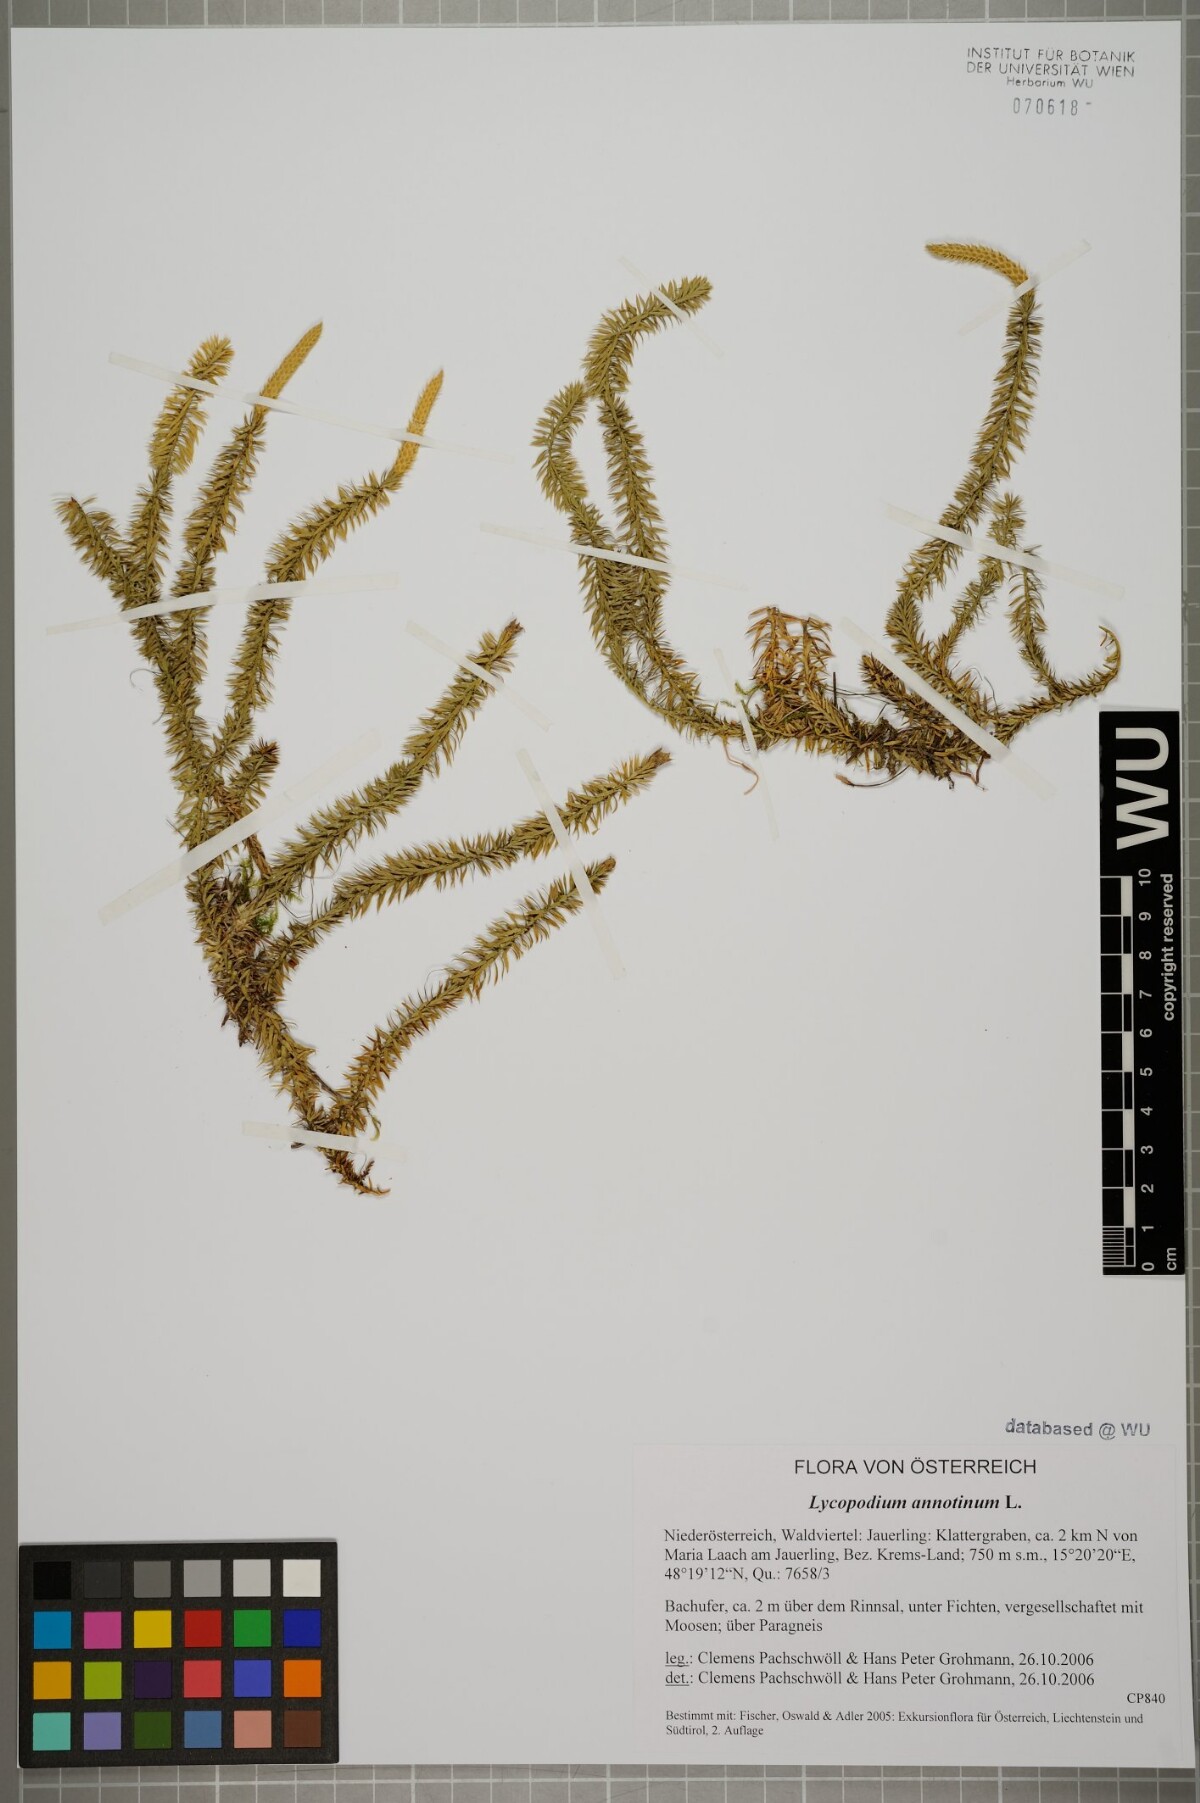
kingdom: Plantae
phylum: Tracheophyta
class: Lycopodiopsida
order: Lycopodiales
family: Lycopodiaceae
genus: Spinulum
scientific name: Spinulum annotinum
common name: Interrupted club-moss
